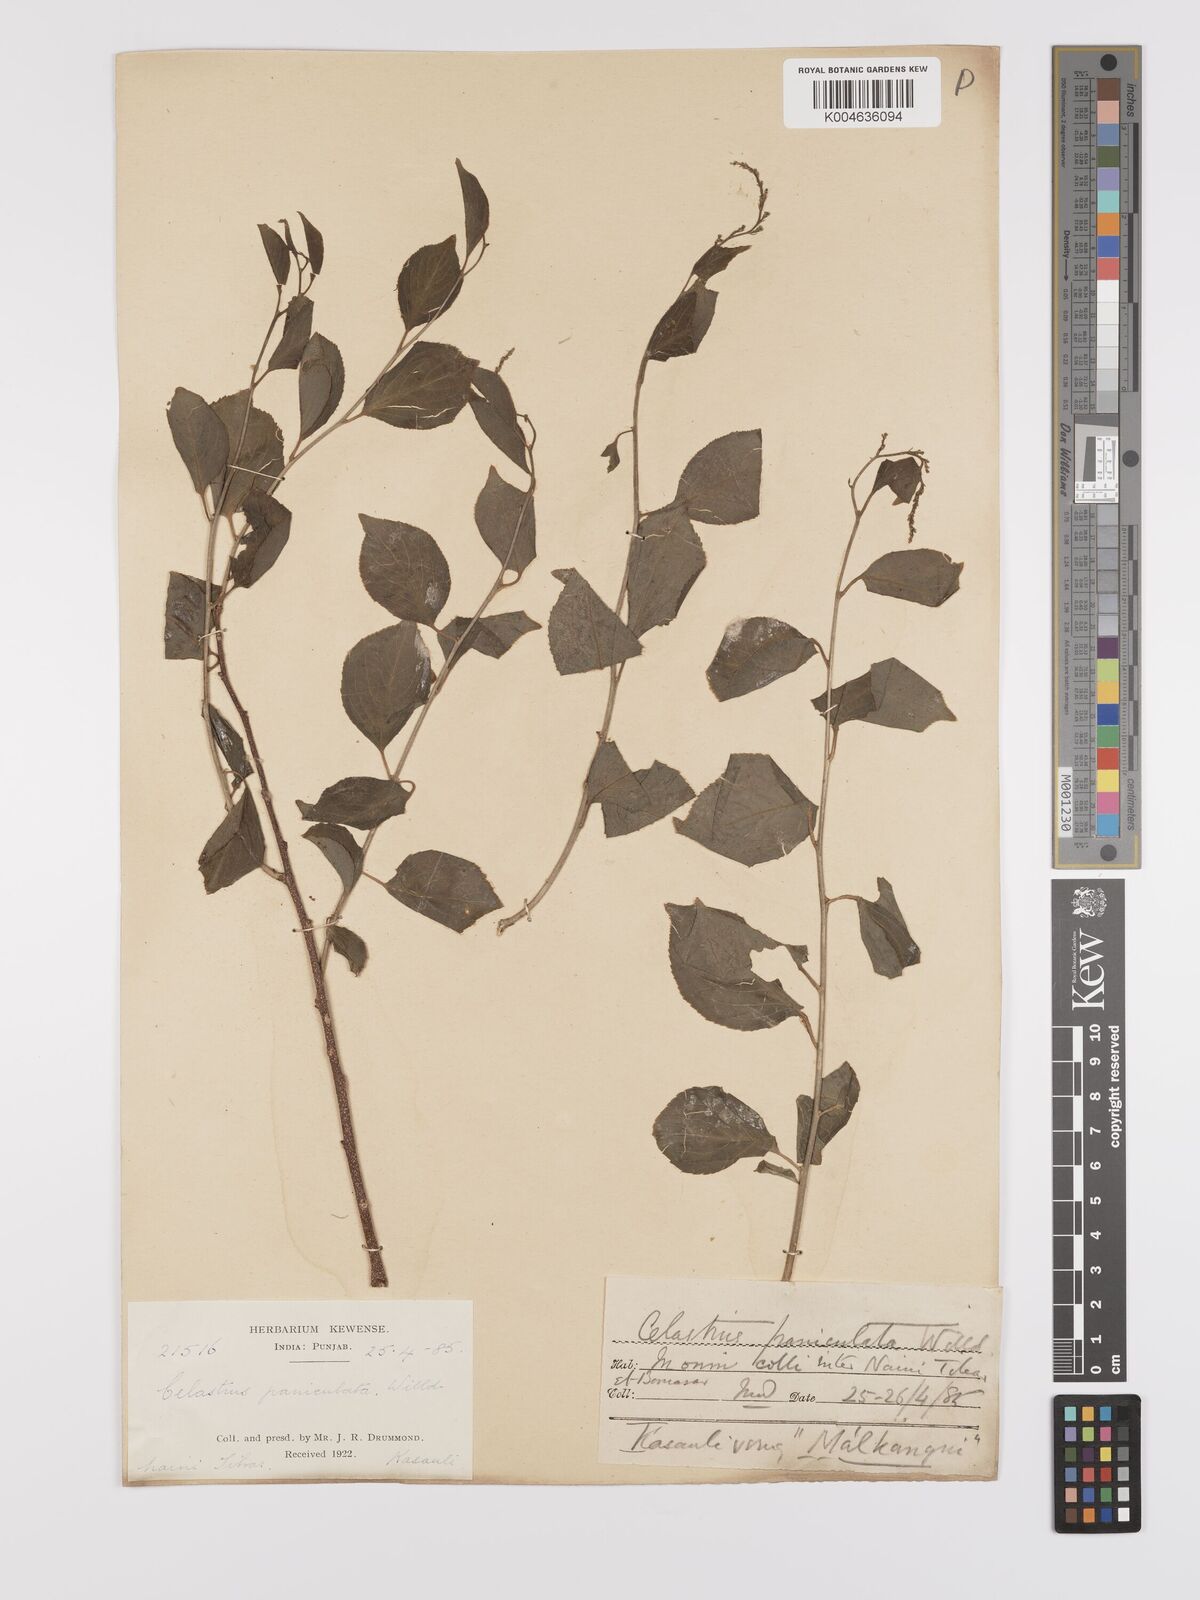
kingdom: Plantae
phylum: Tracheophyta
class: Magnoliopsida
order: Celastrales
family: Celastraceae
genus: Celastrus
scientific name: Celastrus paniculatus
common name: Oriental bittersweet; staff vine
